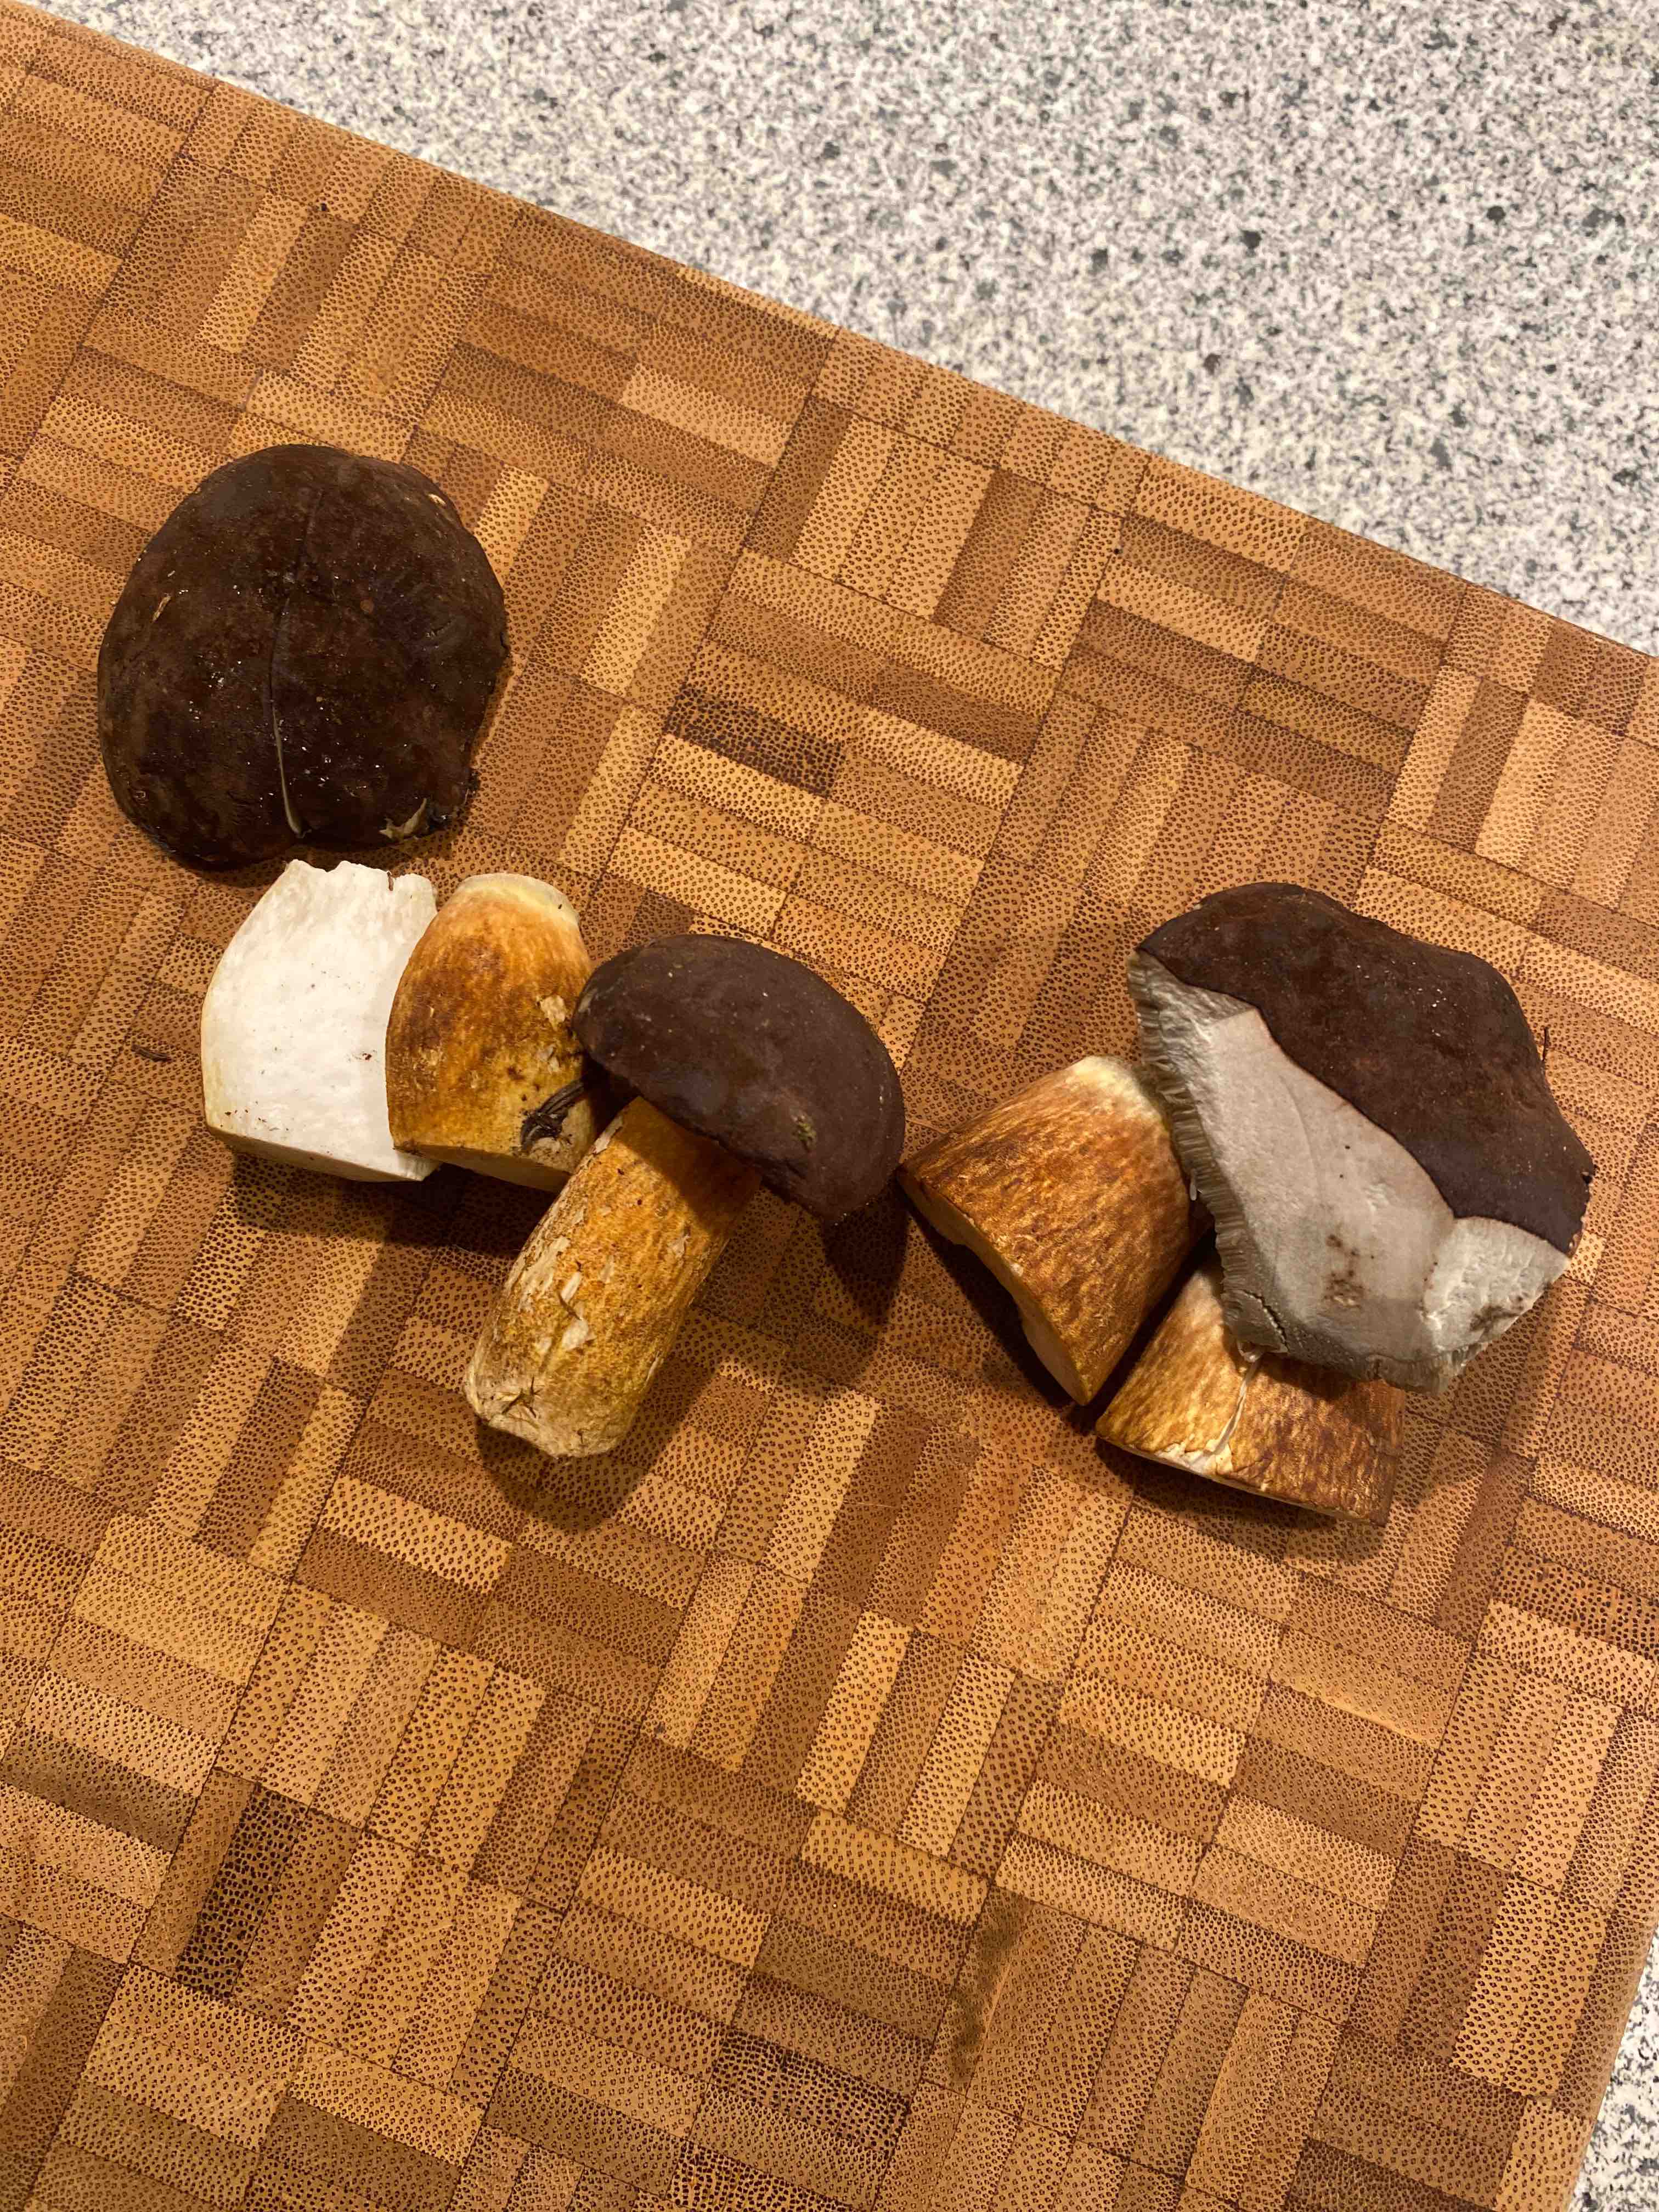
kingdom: Fungi
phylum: Basidiomycota
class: Agaricomycetes
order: Boletales
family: Boletaceae
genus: Imleria
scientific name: Imleria badia
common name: brunstokket rørhat
